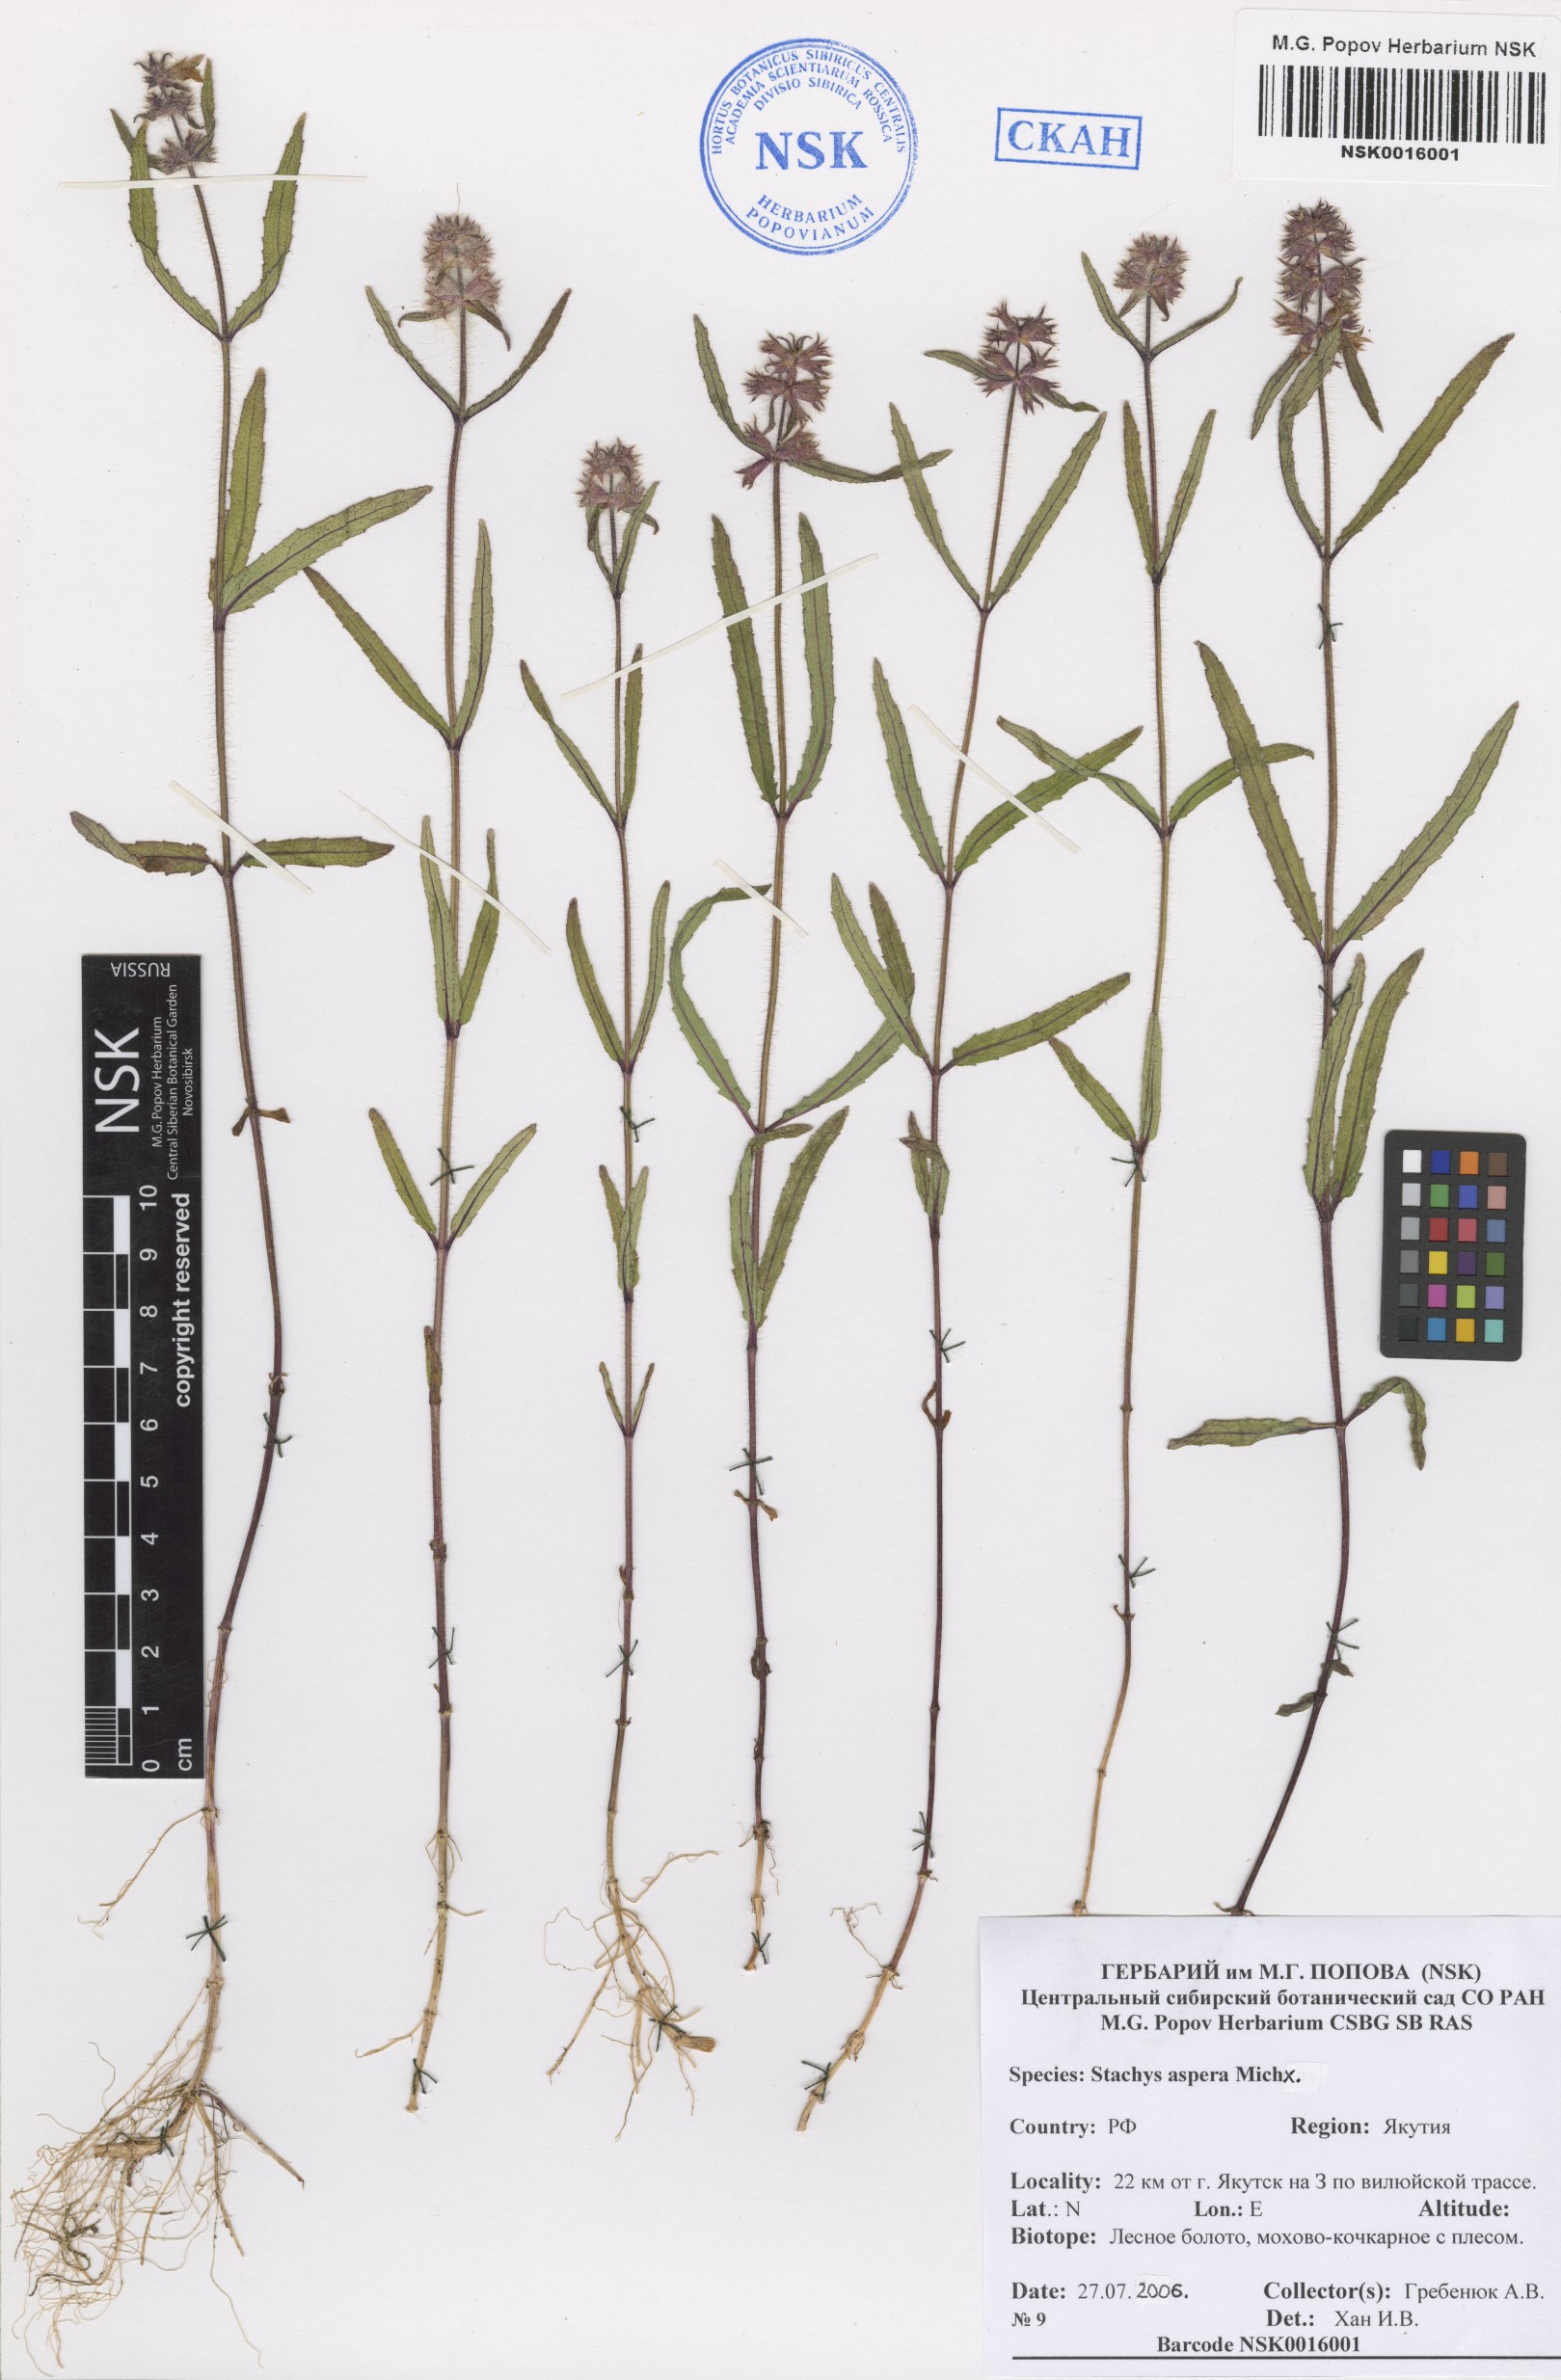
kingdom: Plantae
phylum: Tracheophyta
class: Magnoliopsida
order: Lamiales
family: Lamiaceae
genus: Stachys
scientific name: Stachys aspera
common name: Hyssopleaf hedgenettle
